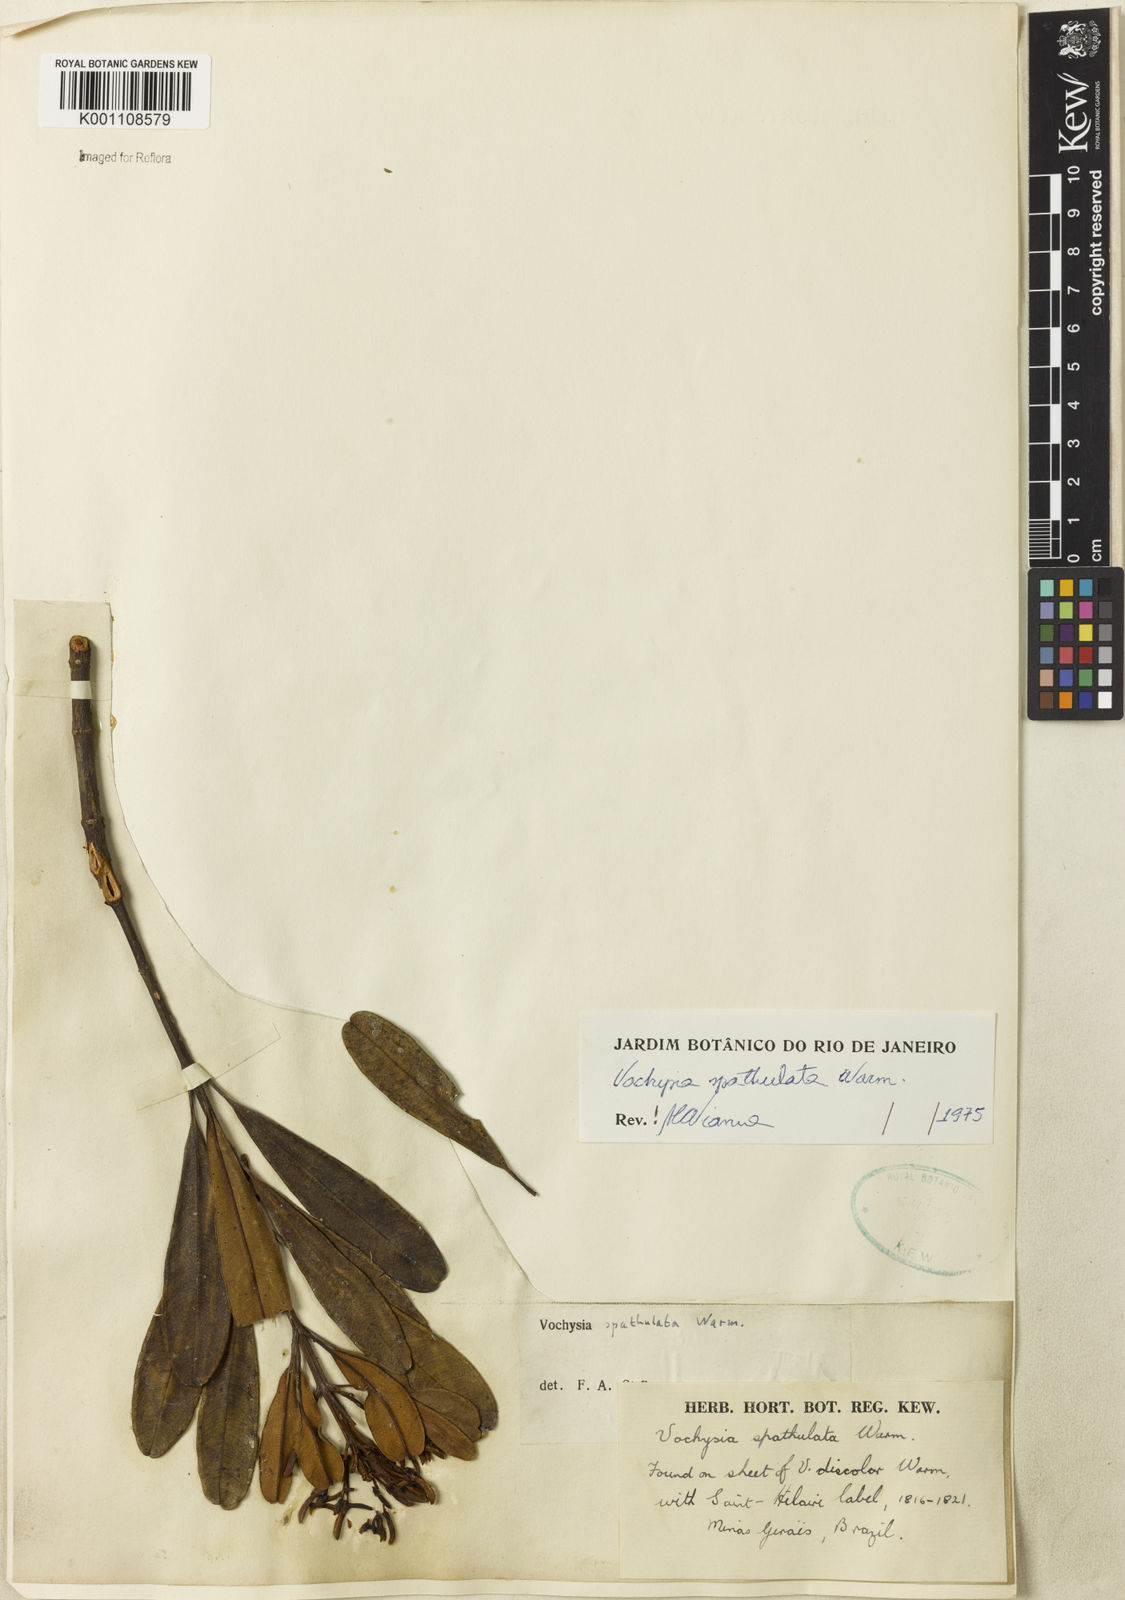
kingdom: Plantae
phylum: Tracheophyta
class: Magnoliopsida
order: Myrtales
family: Vochysiaceae
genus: Vochysia
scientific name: Vochysia spathulata
